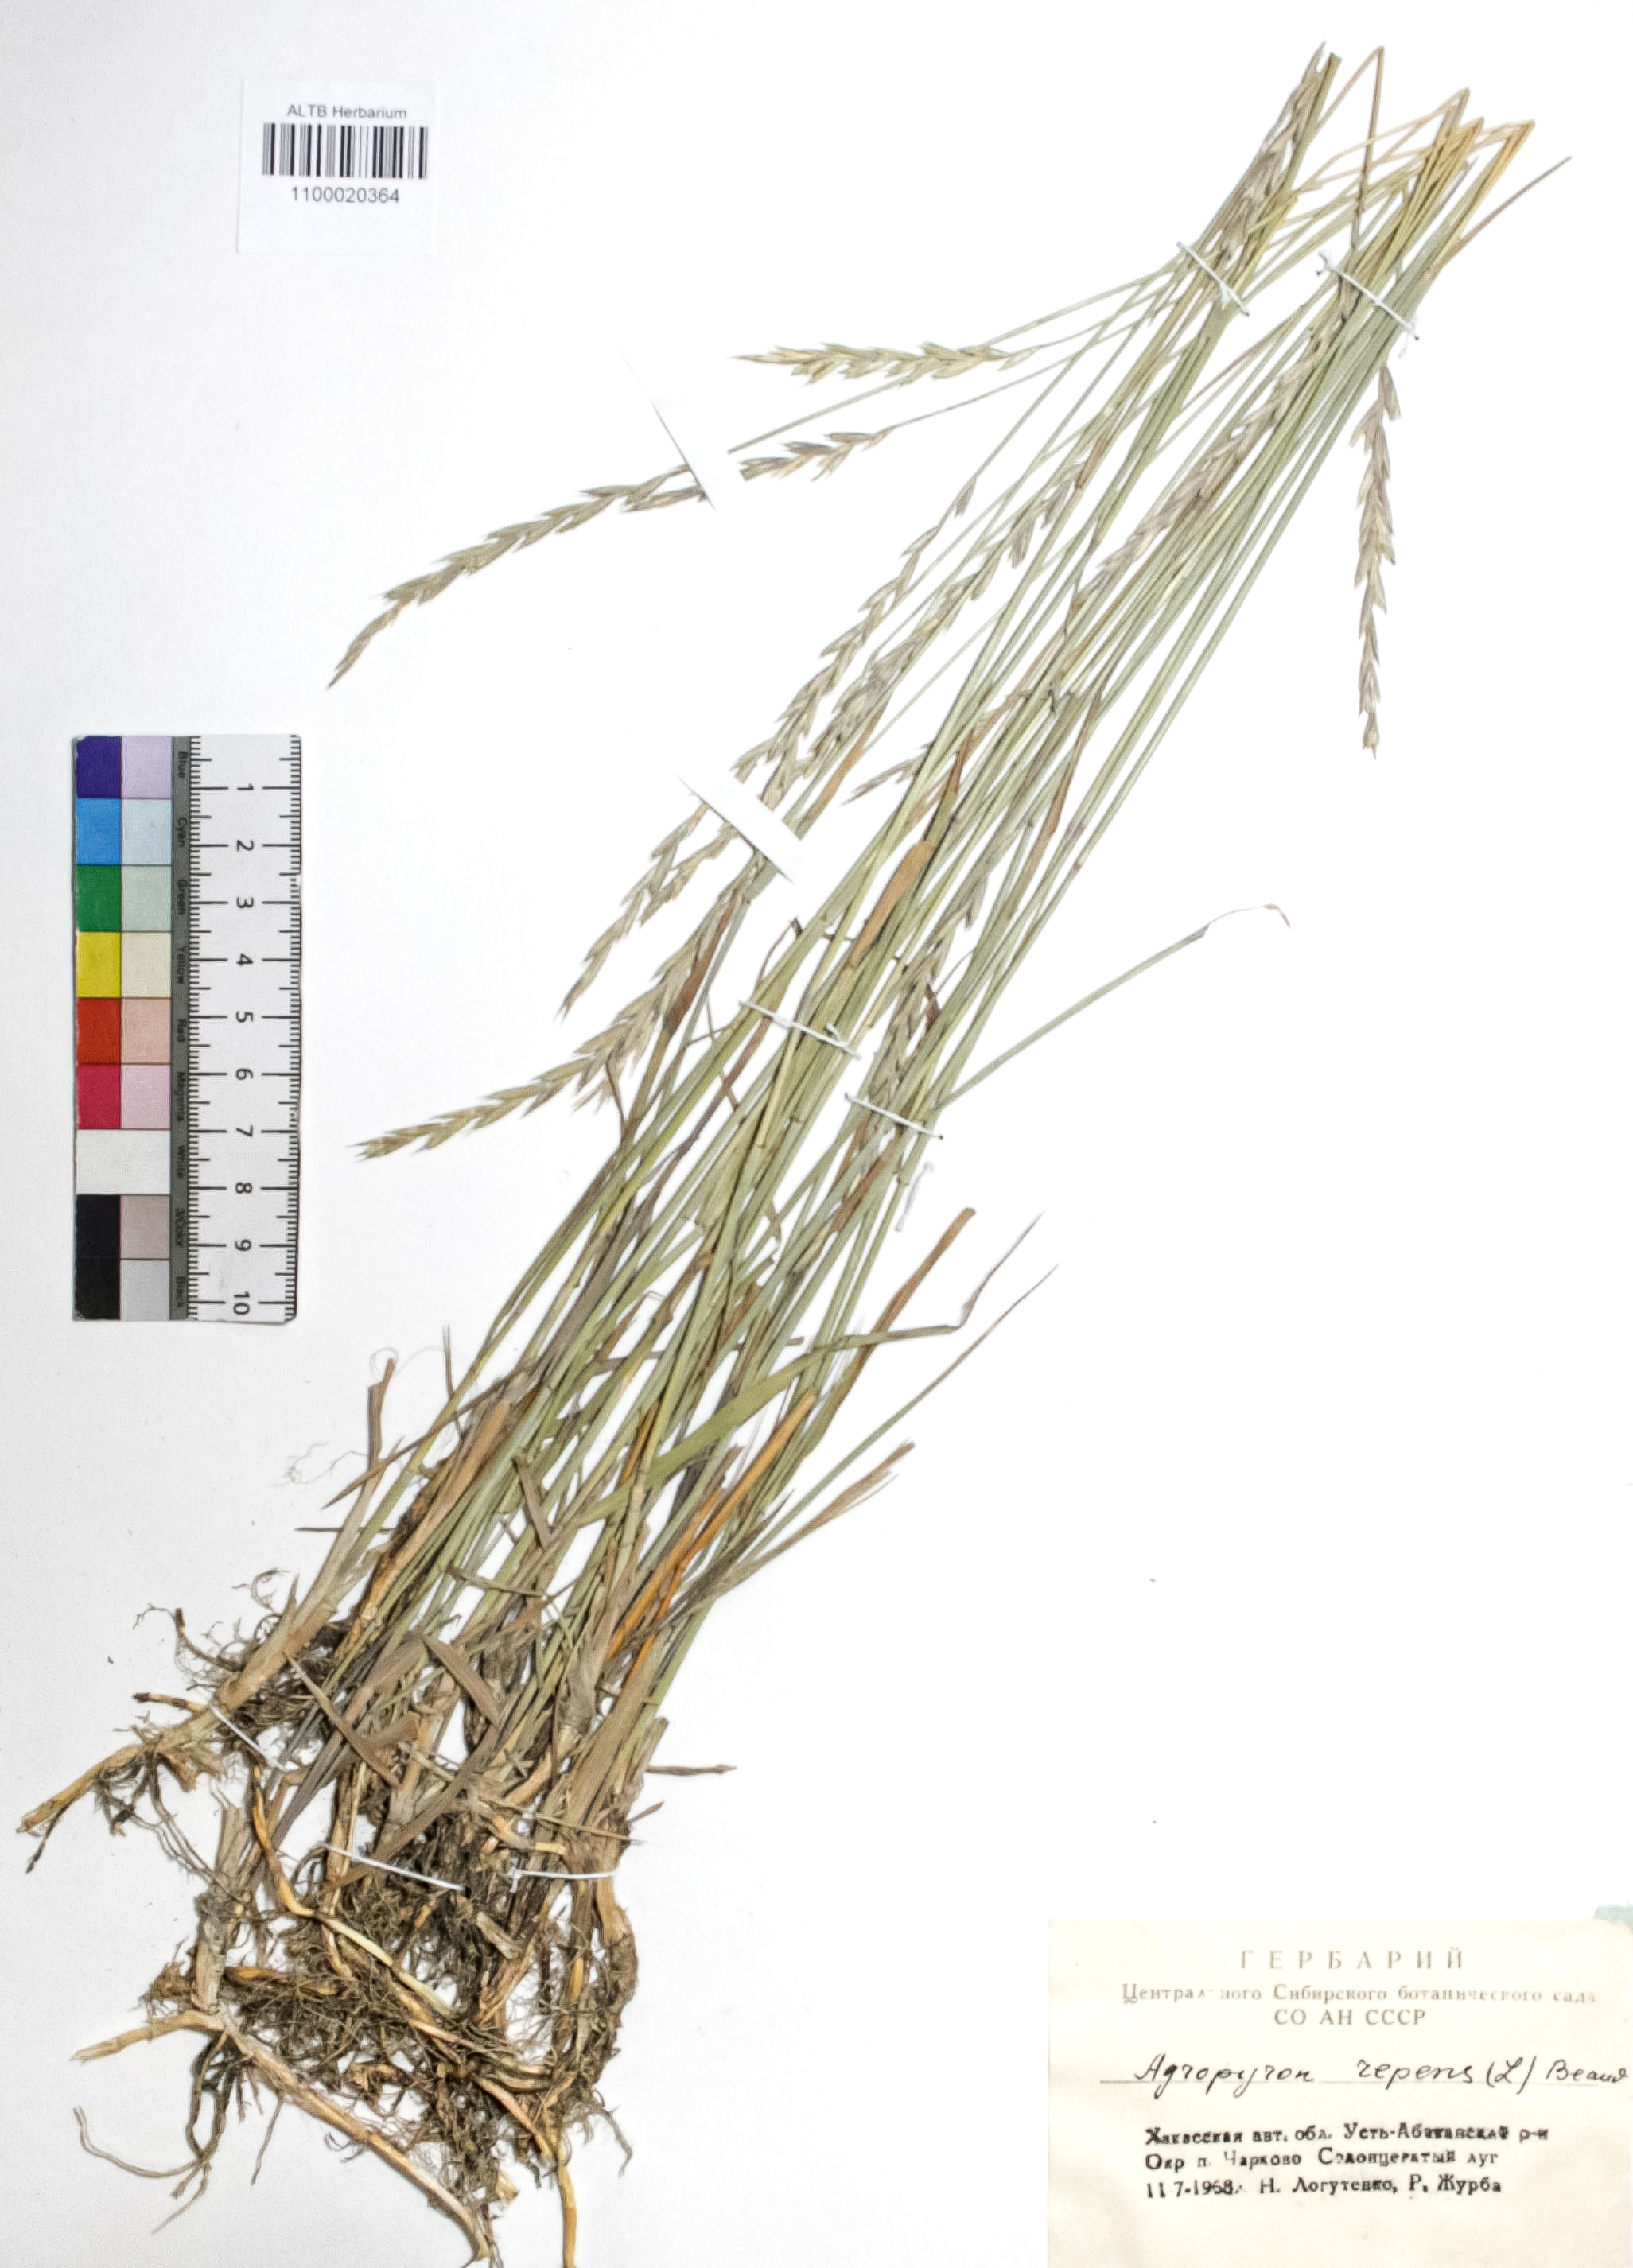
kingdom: Plantae
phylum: Tracheophyta
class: Liliopsida
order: Poales
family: Poaceae
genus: Elymus
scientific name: Elymus repens
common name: Quackgrass
